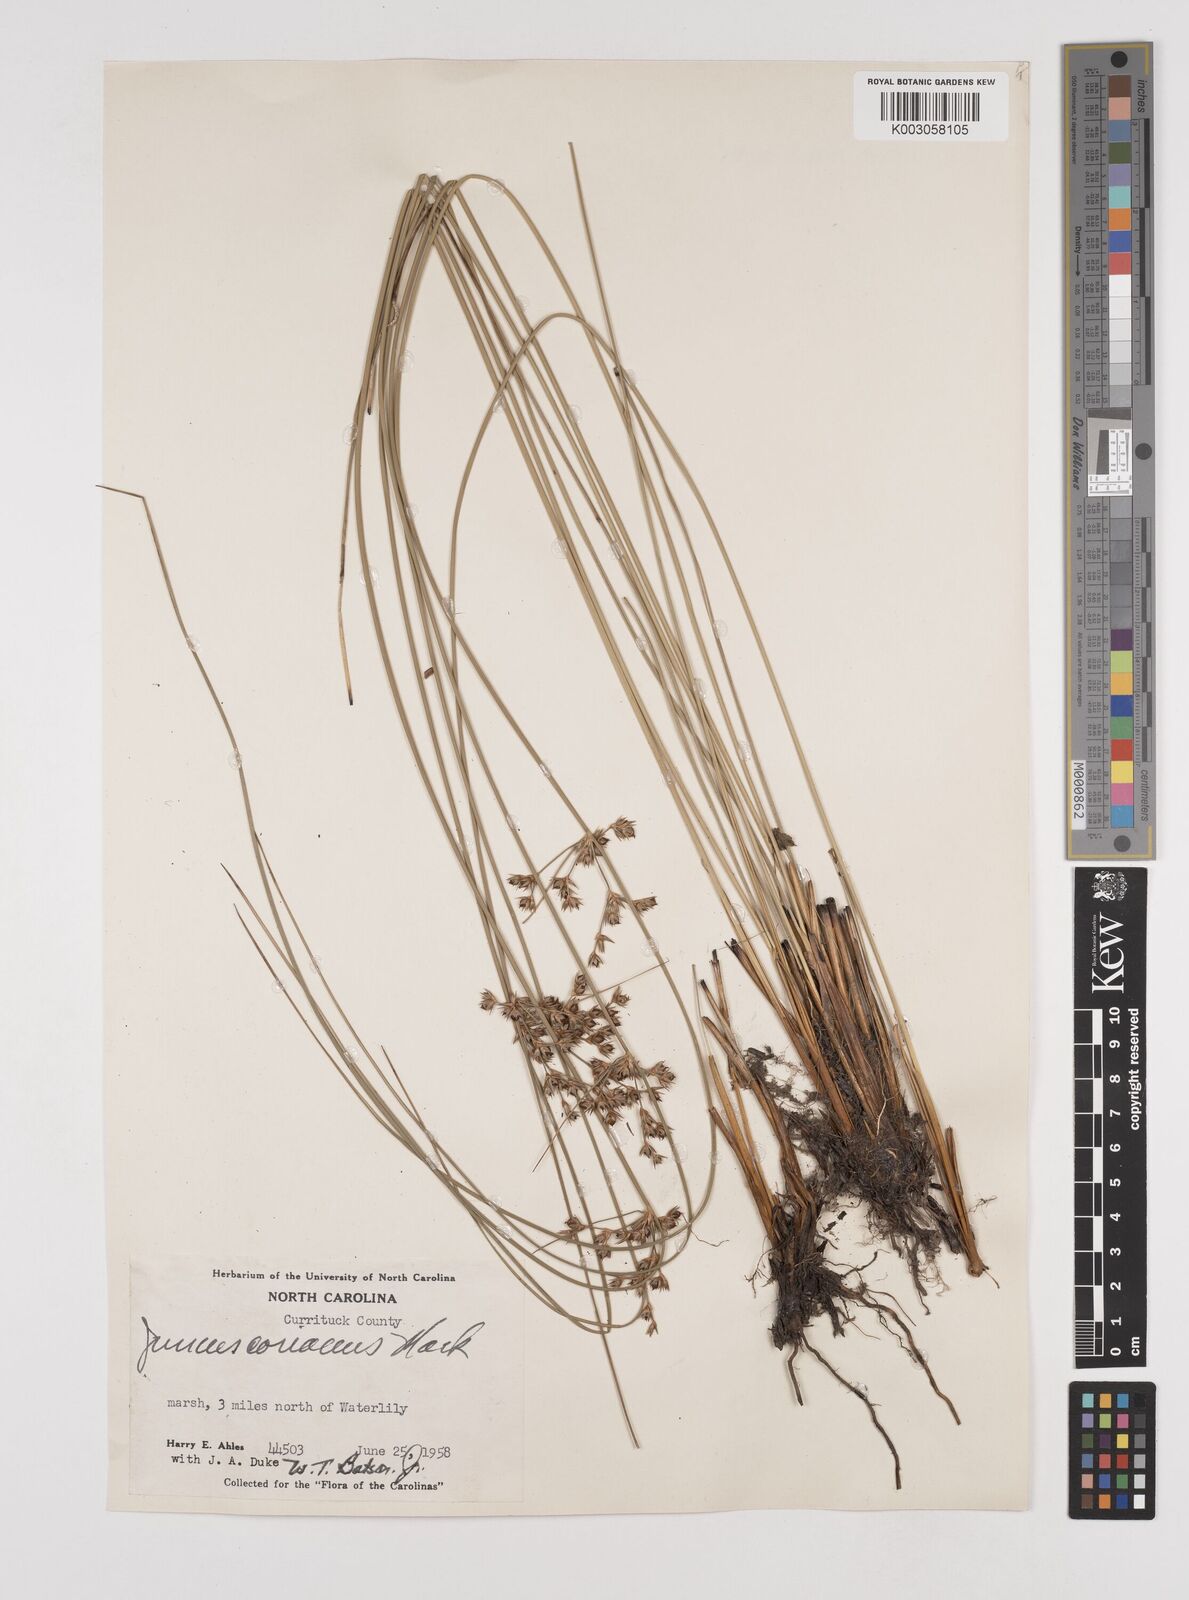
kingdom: Plantae
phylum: Tracheophyta
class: Liliopsida
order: Poales
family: Juncaceae
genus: Juncus
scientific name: Juncus coriaceus
